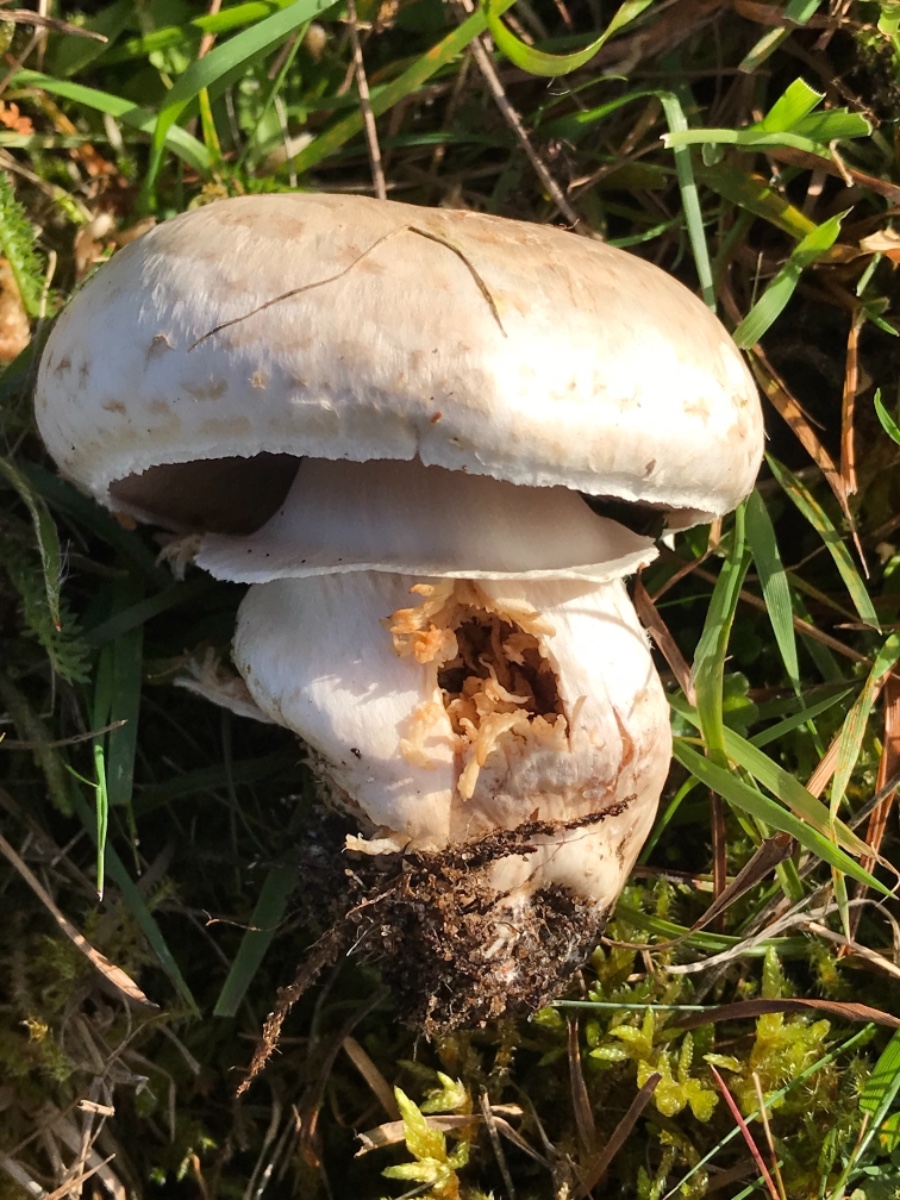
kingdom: Fungi
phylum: Basidiomycota
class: Agaricomycetes
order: Agaricales
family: Agaricaceae
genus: Agaricus
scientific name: Agaricus
